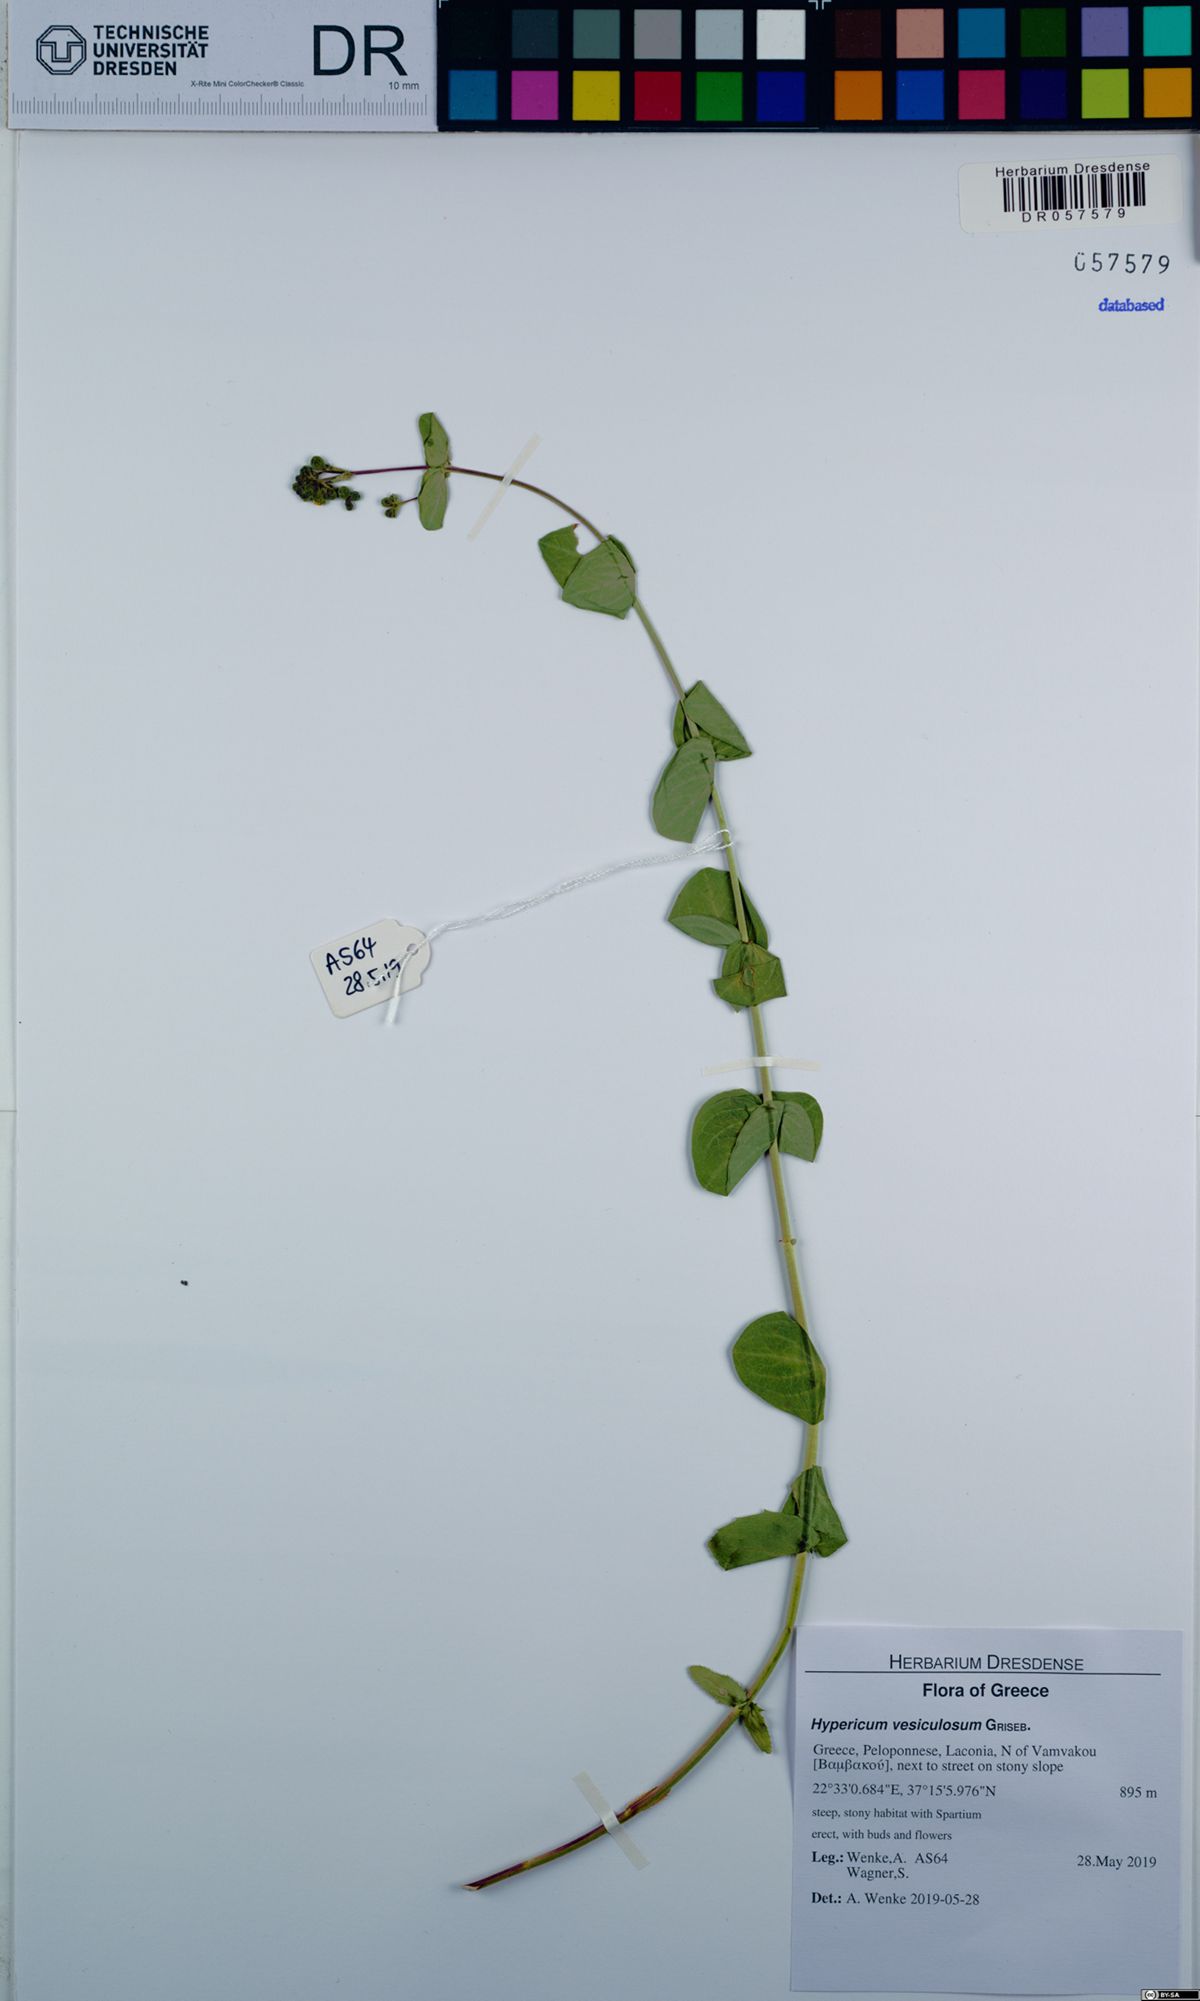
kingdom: Plantae
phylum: Tracheophyta
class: Magnoliopsida
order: Malpighiales
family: Hypericaceae
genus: Hypericum
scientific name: Hypericum vesiculosum
